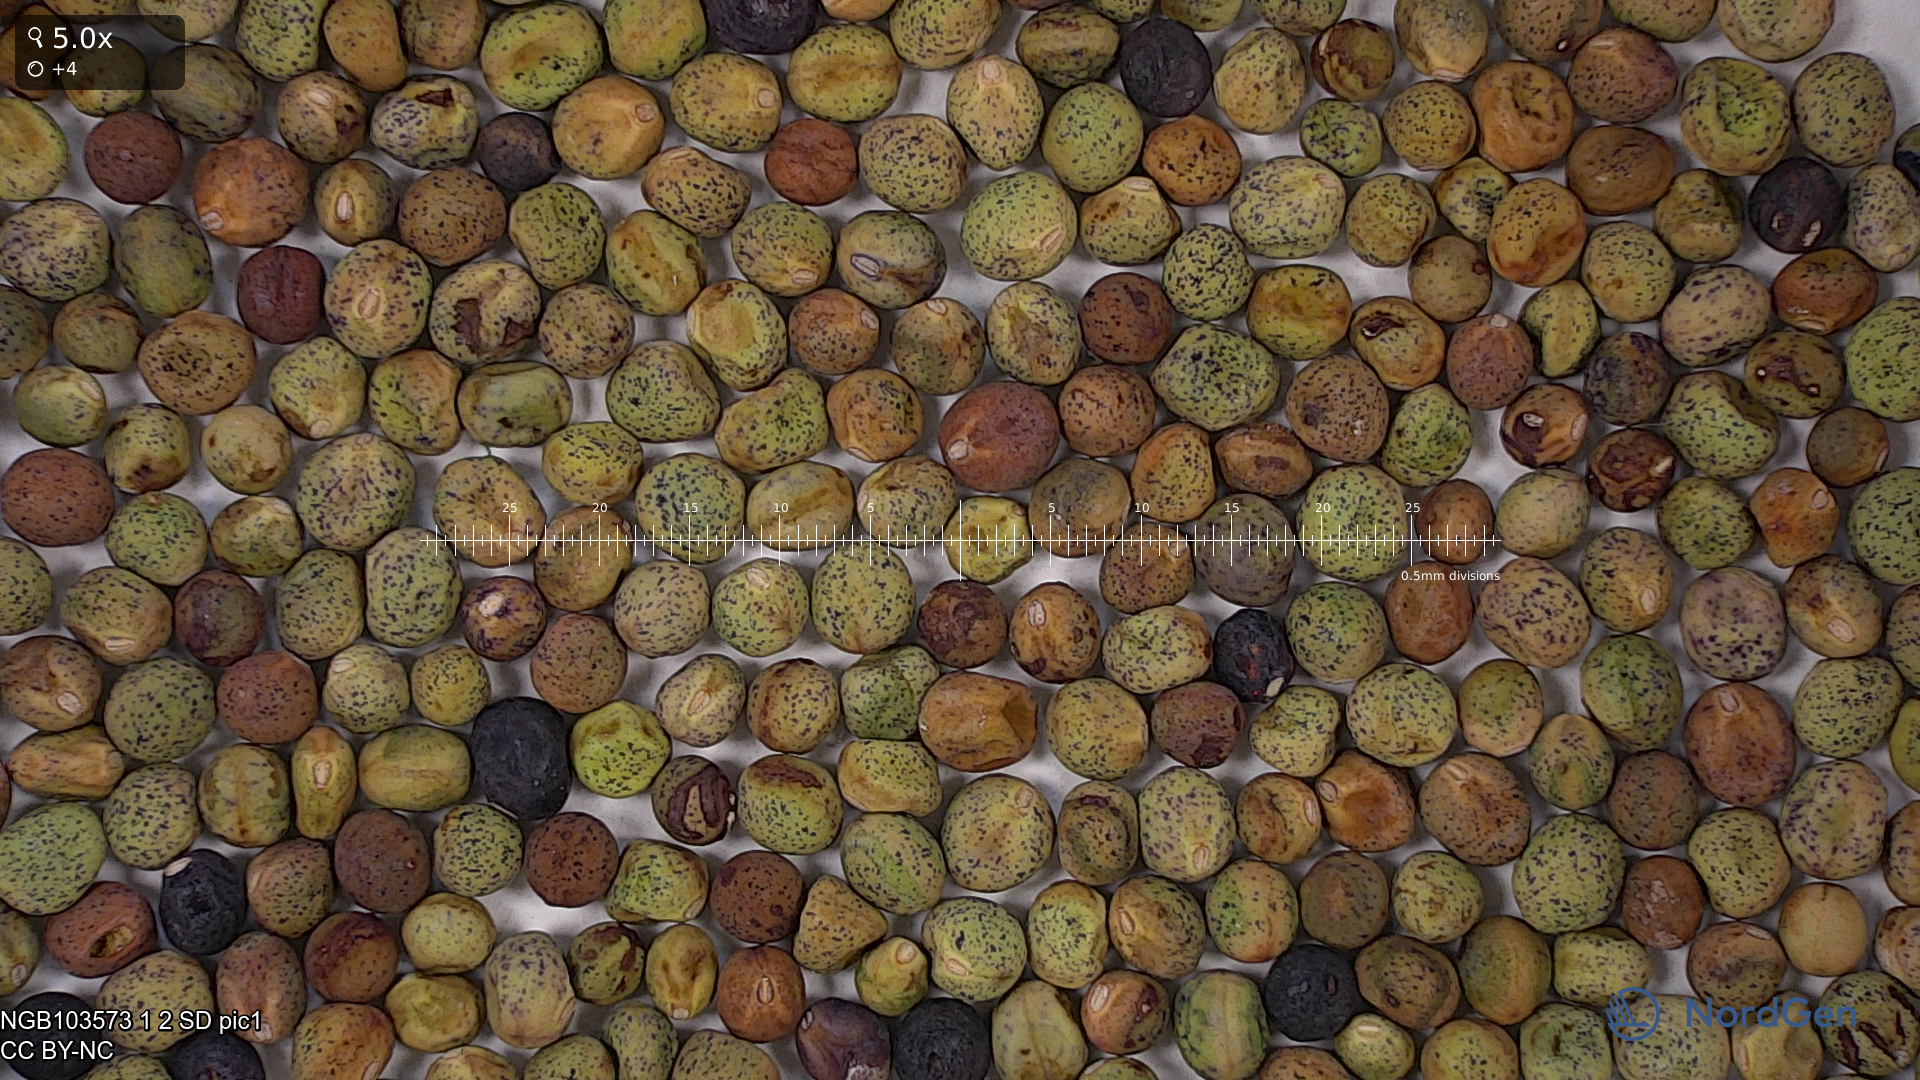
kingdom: Plantae
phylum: Tracheophyta
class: Magnoliopsida
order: Fabales
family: Fabaceae
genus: Lathyrus
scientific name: Lathyrus oleraceus
